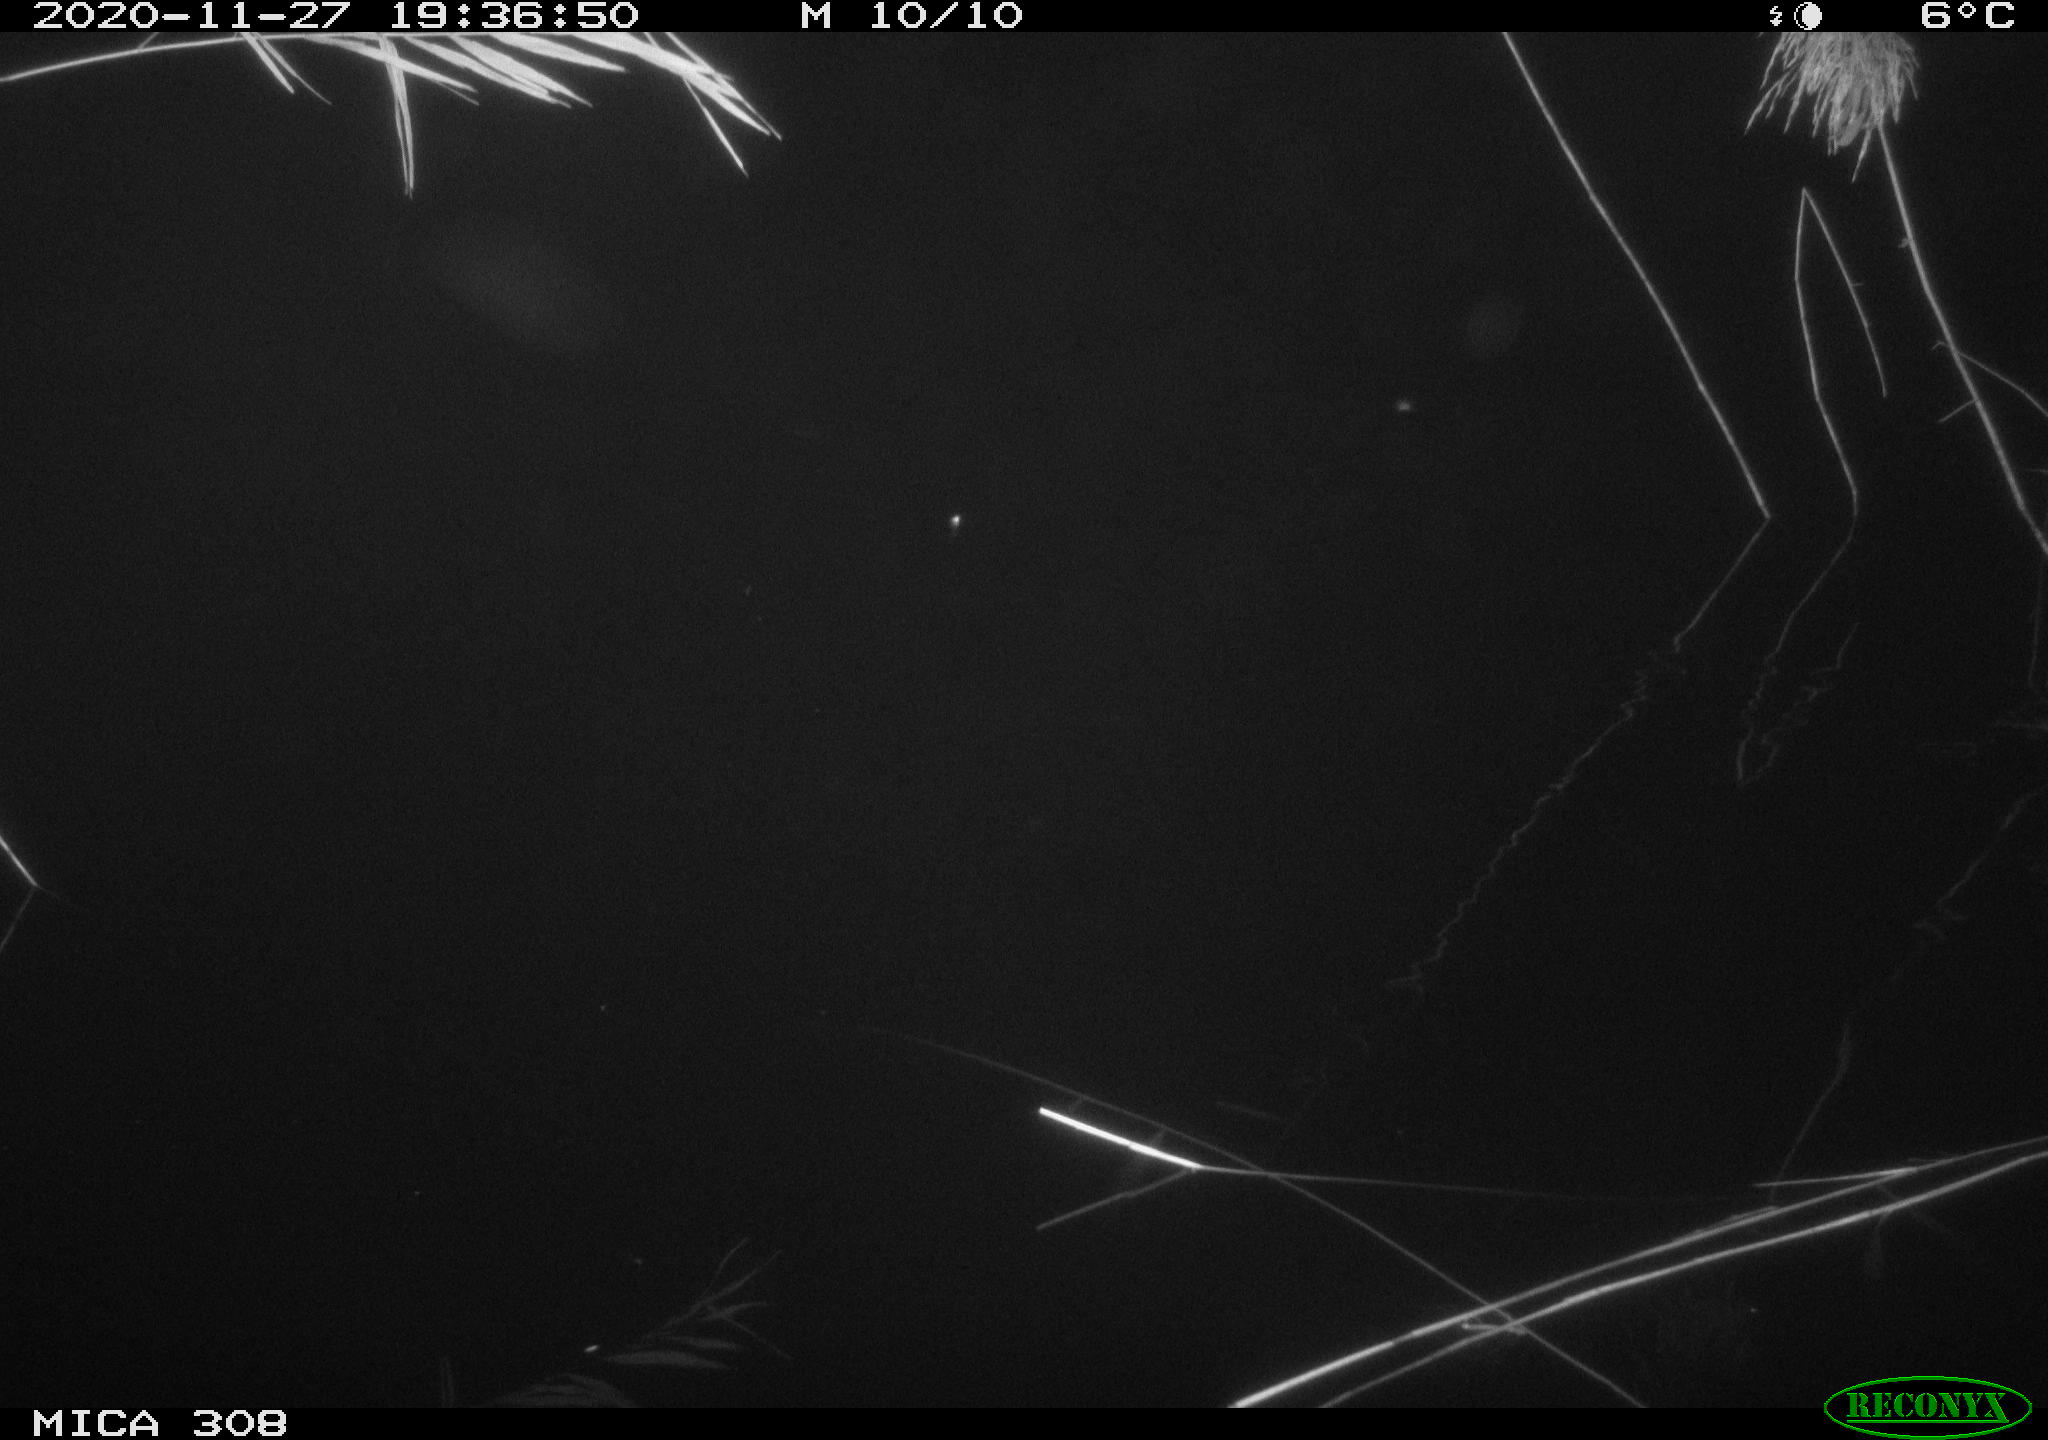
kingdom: Animalia
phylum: Chordata
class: Mammalia
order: Rodentia
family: Muridae
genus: Rattus
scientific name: Rattus norvegicus
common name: Brown rat
